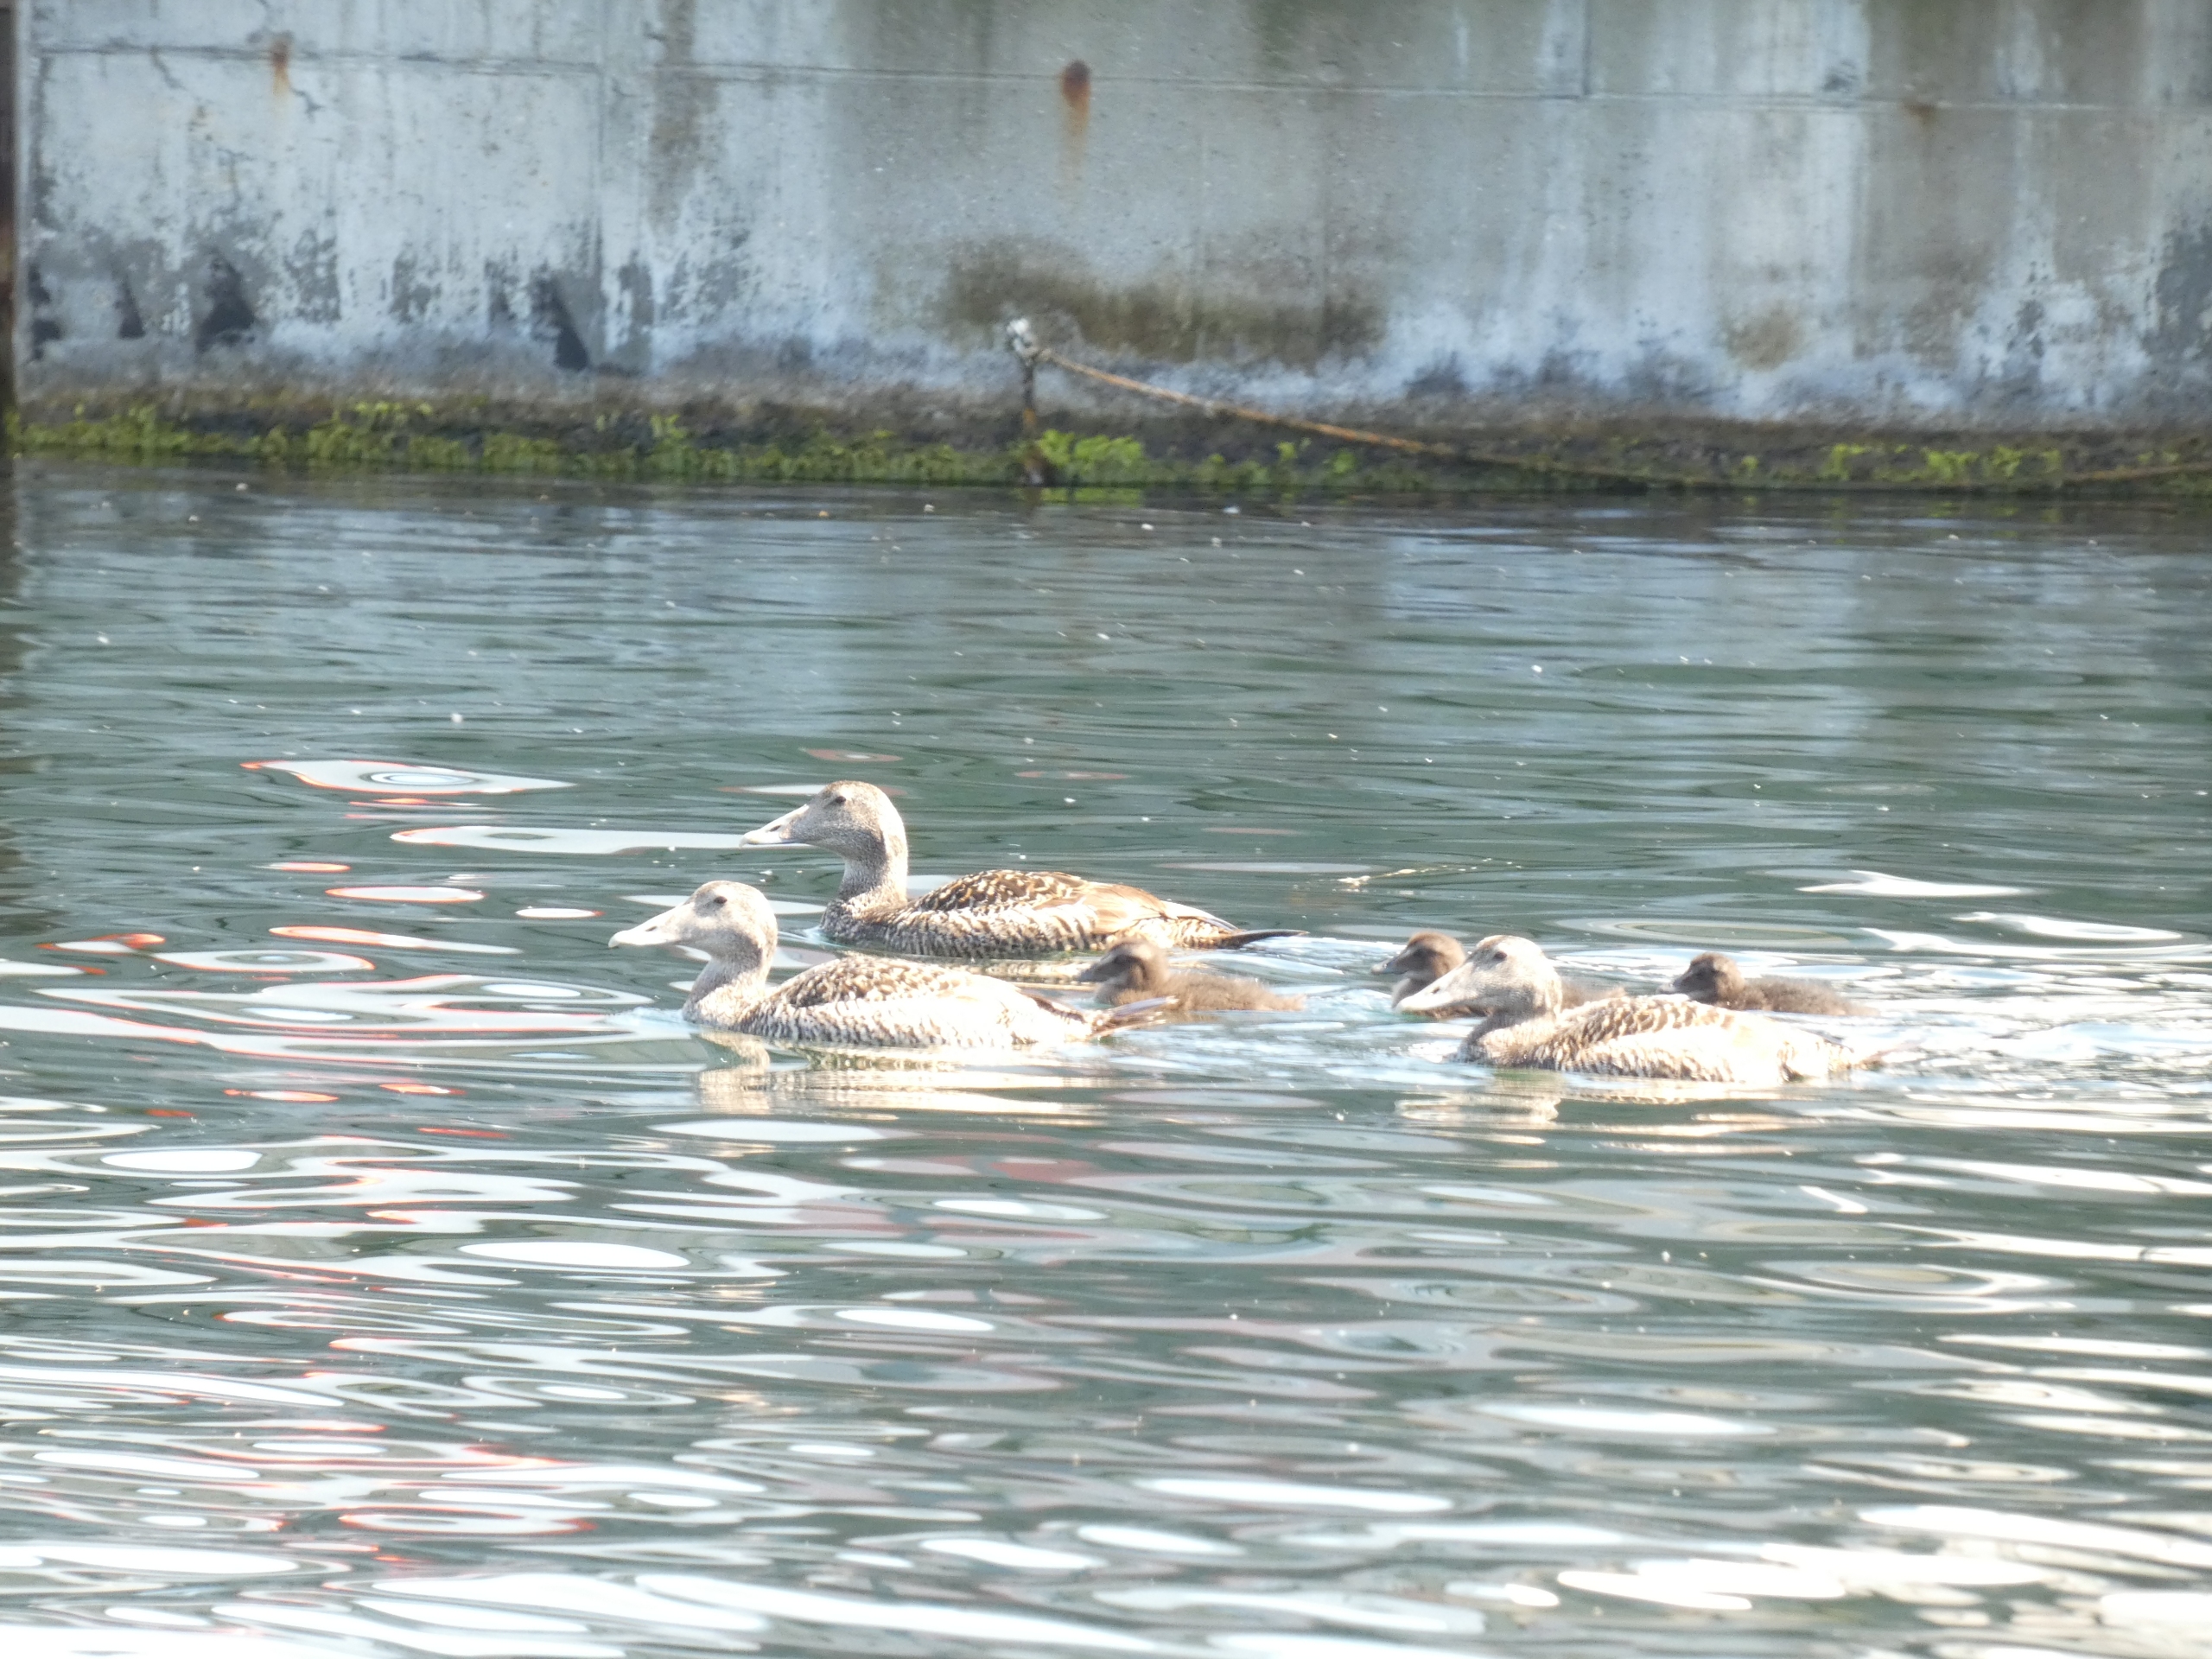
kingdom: Animalia
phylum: Chordata
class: Aves
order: Anseriformes
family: Anatidae
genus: Somateria
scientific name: Somateria mollissima
